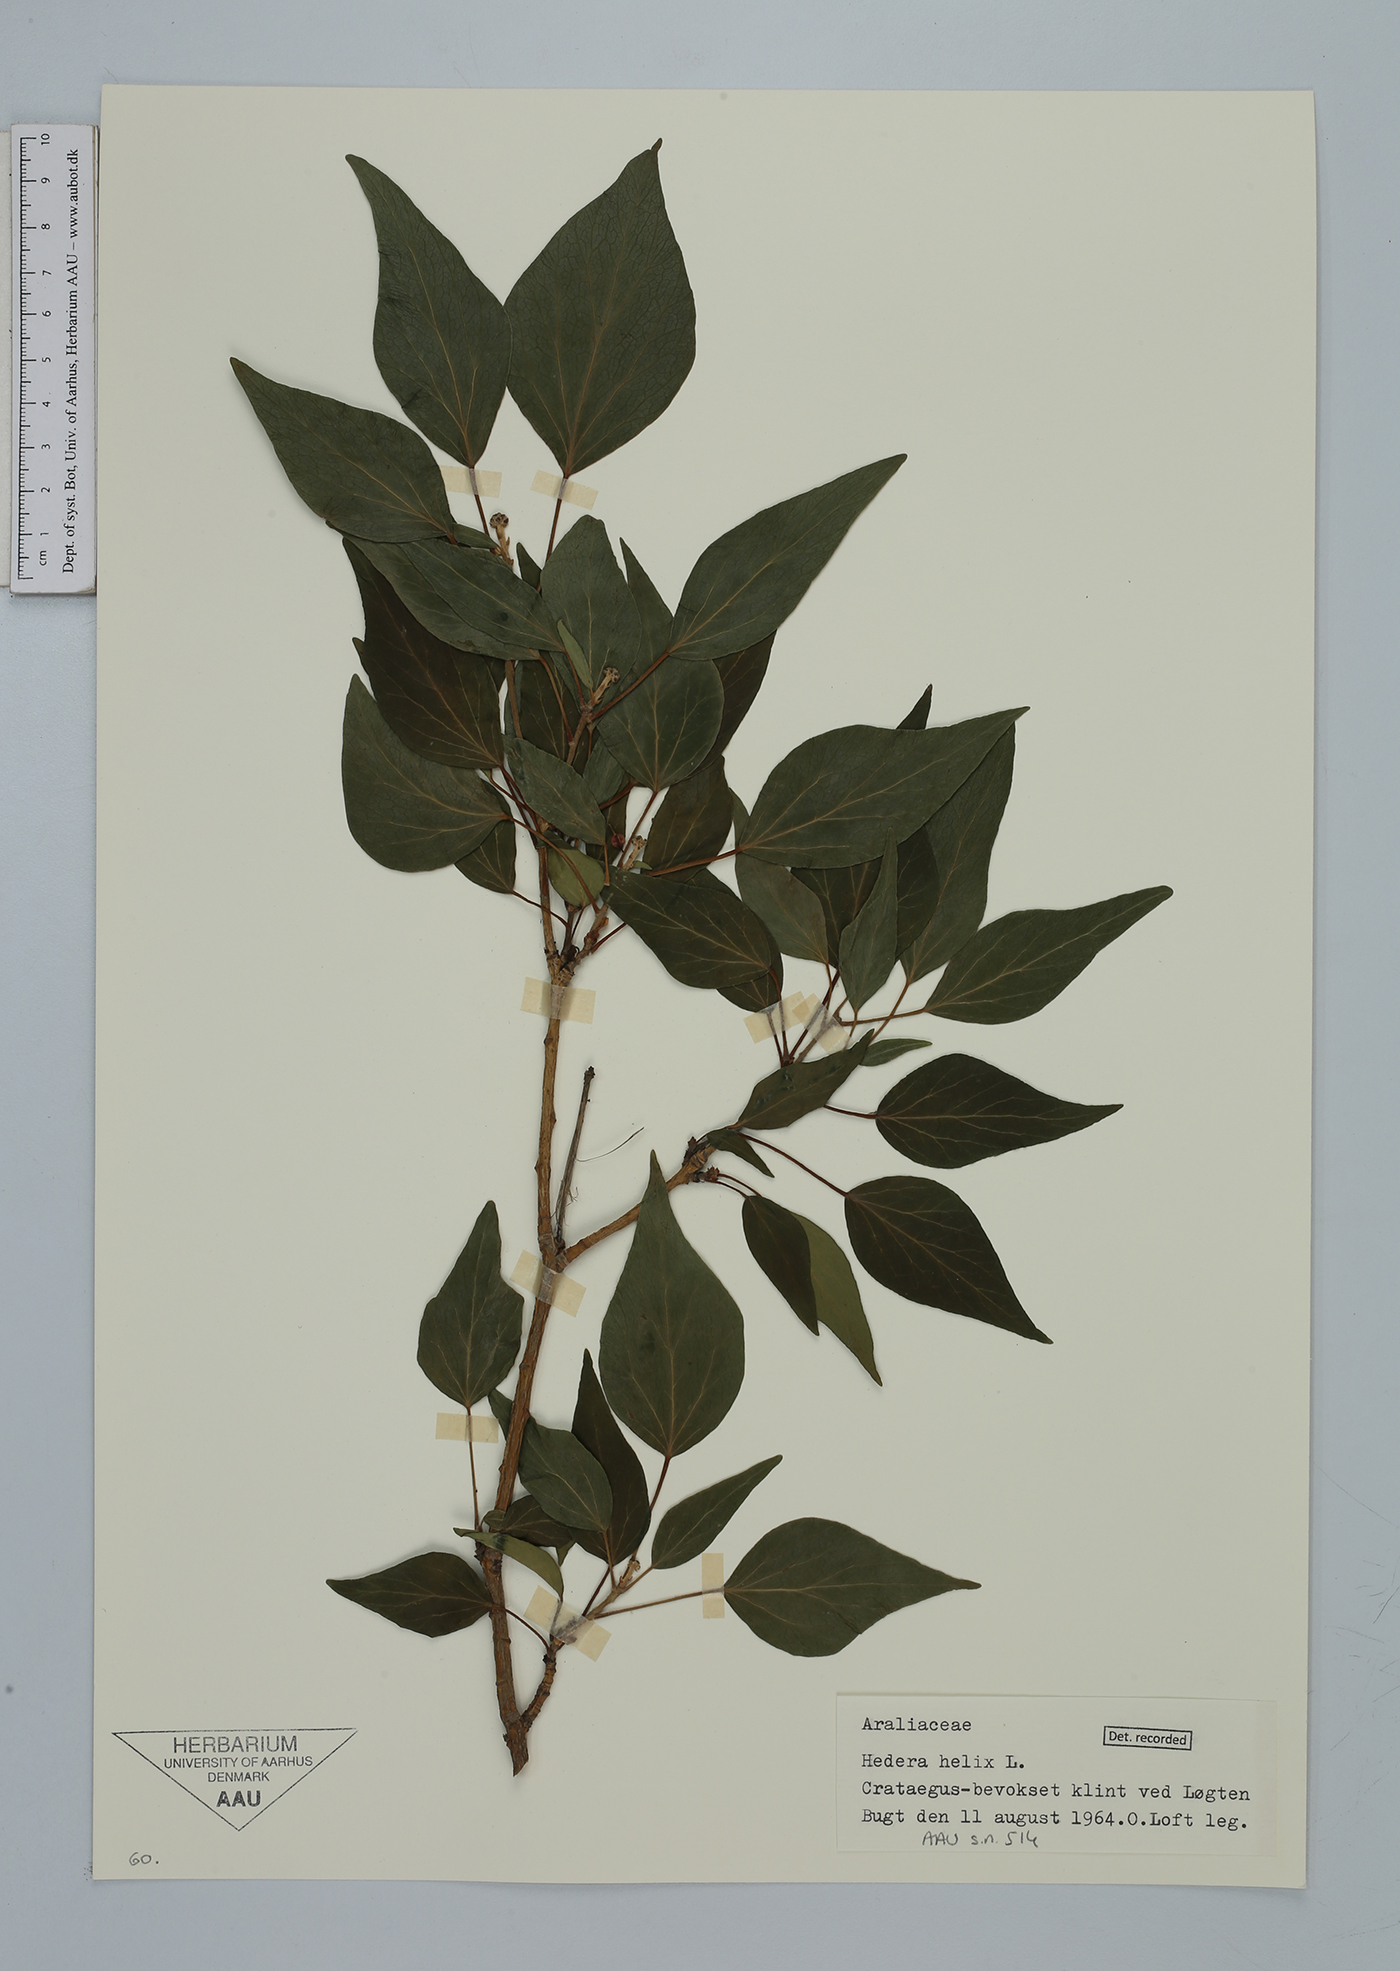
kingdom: Plantae
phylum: Tracheophyta
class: Magnoliopsida
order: Apiales
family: Araliaceae
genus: Hedera
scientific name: Hedera helix
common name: Ivy
